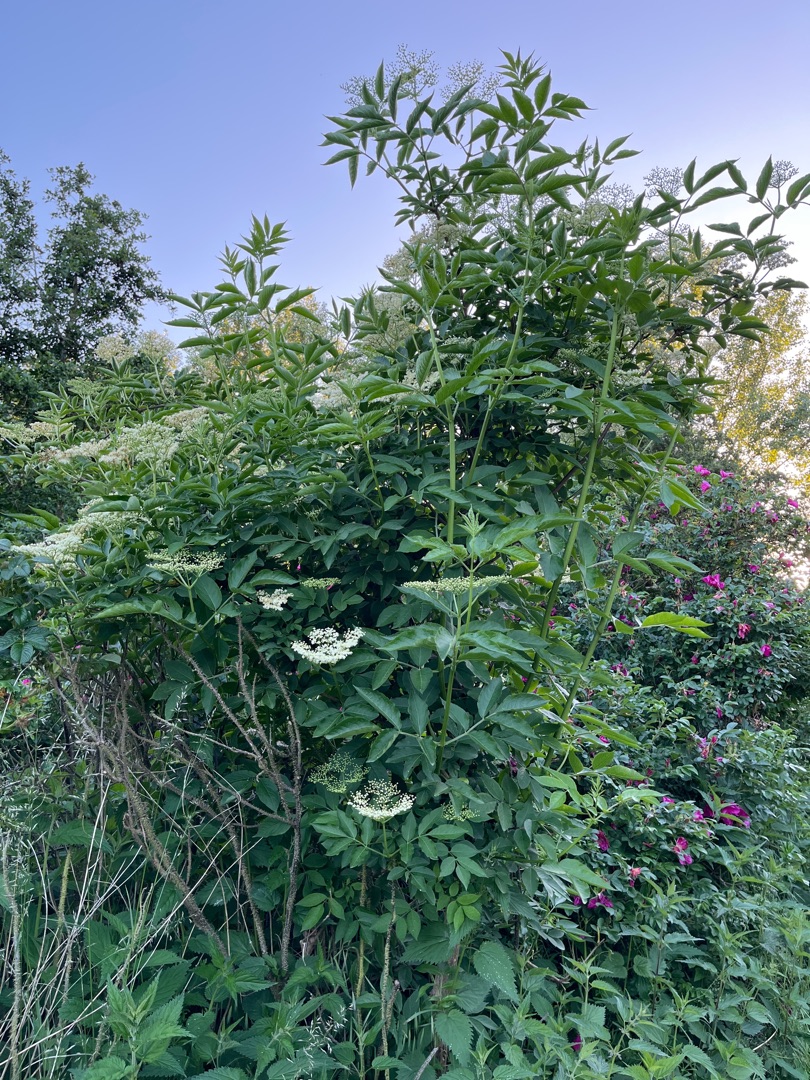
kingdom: Plantae
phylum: Tracheophyta
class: Magnoliopsida
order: Dipsacales
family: Viburnaceae
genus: Sambucus
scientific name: Sambucus nigra
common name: Almindelig hyld
